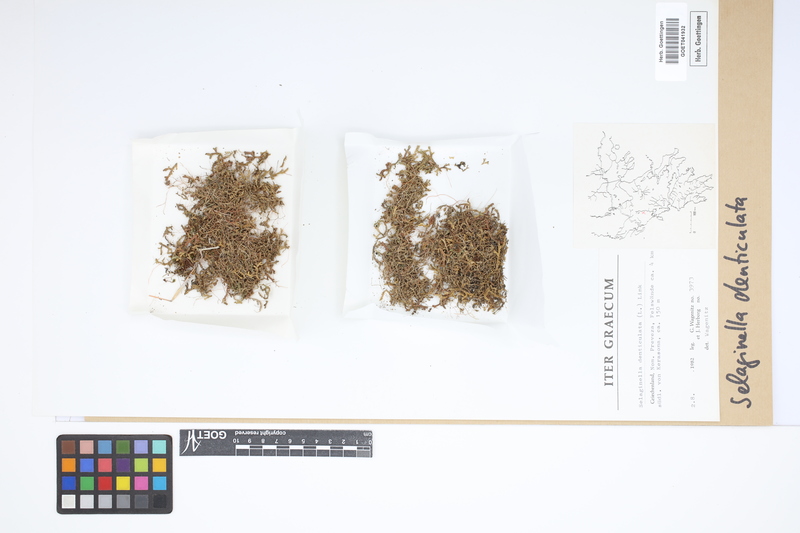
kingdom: Plantae
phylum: Tracheophyta
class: Lycopodiopsida
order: Selaginellales
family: Selaginellaceae
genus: Selaginella
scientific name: Selaginella denticulata
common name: Toothed-leaved clubmoss
